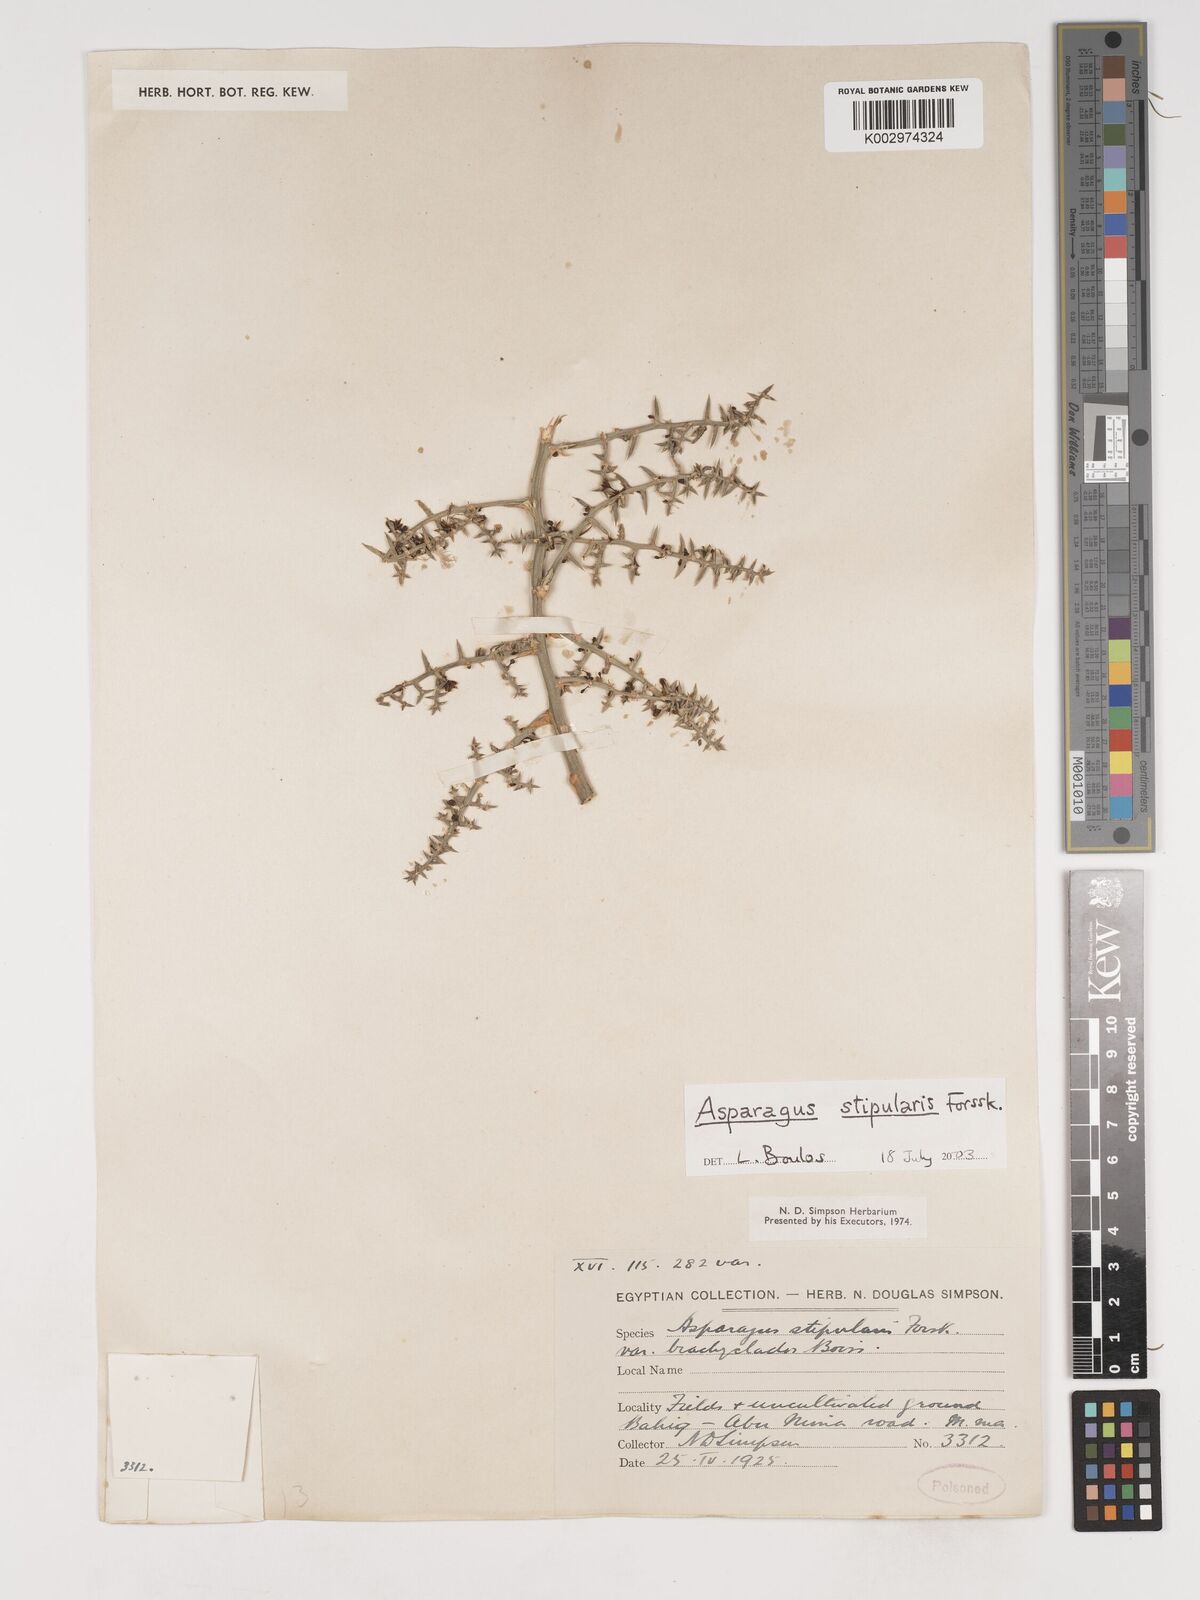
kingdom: Plantae
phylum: Tracheophyta
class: Liliopsida
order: Asparagales
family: Asparagaceae
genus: Asparagus
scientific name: Asparagus aphyllus
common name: Mediterranean asparagus
